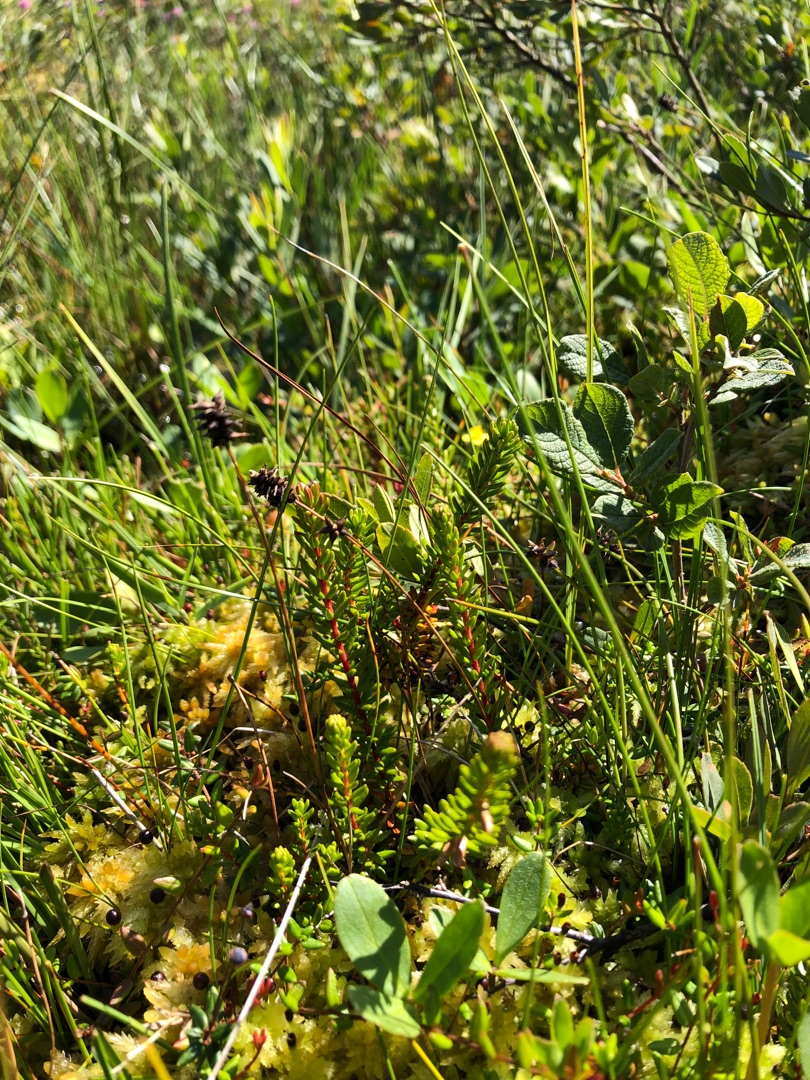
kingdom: Plantae
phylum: Tracheophyta
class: Liliopsida
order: Poales
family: Cyperaceae
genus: Carex
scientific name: Carex dioica
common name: Tvebo star
